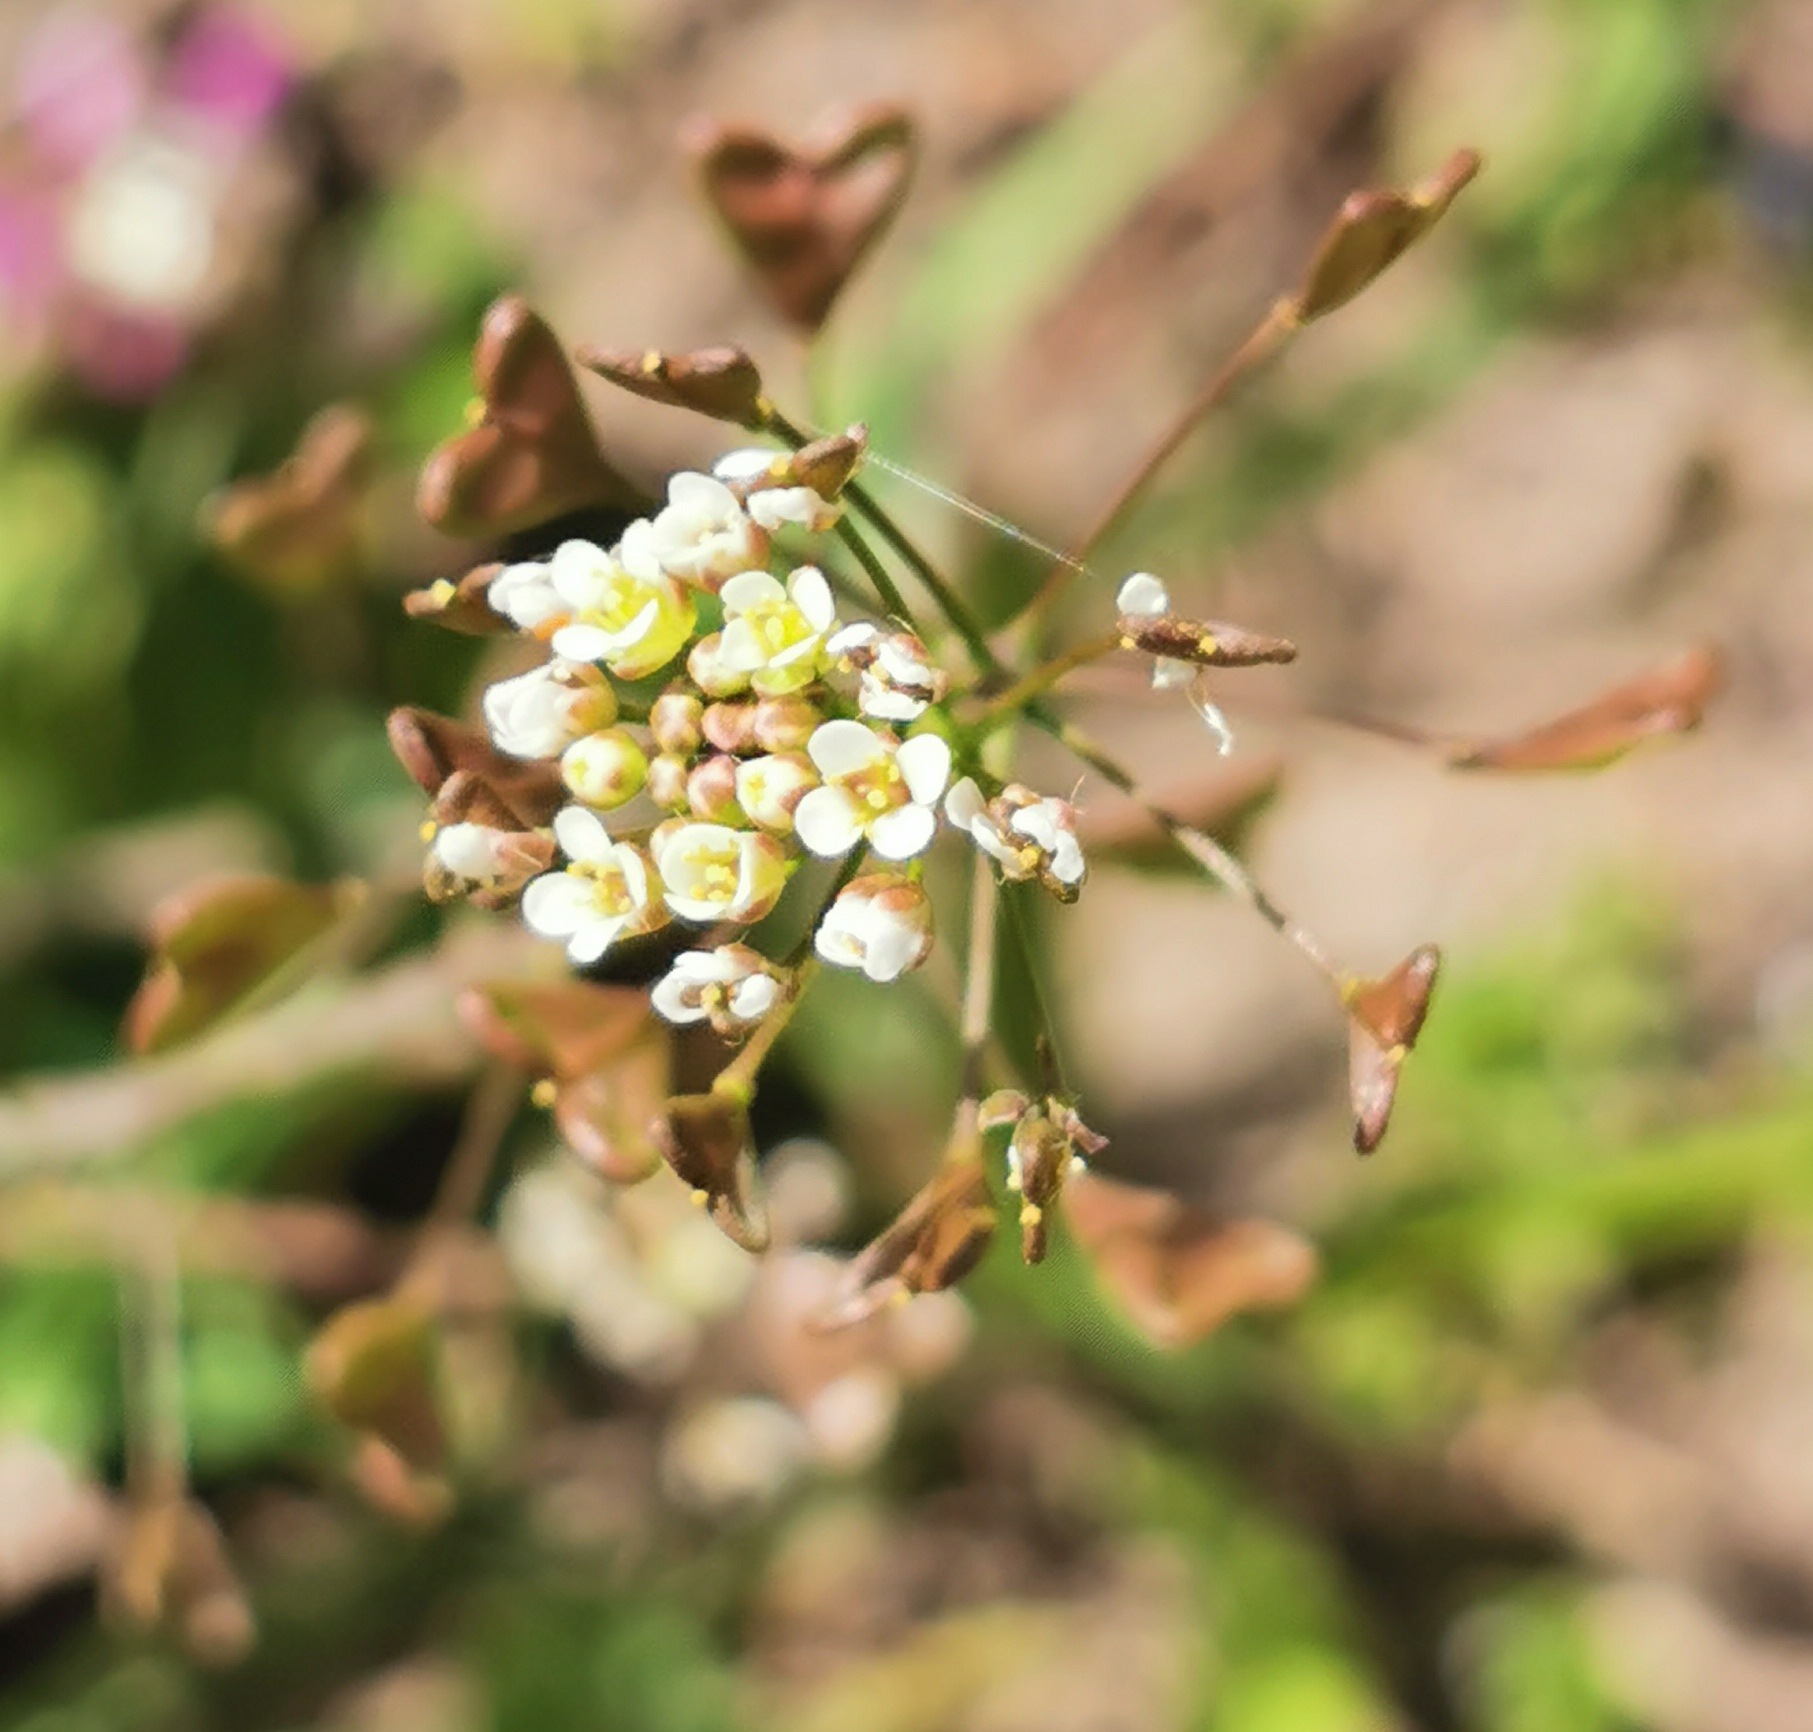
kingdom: Plantae
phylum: Tracheophyta
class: Magnoliopsida
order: Brassicales
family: Brassicaceae
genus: Capsella
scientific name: Capsella bursa-pastoris
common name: Hyrdetaske
